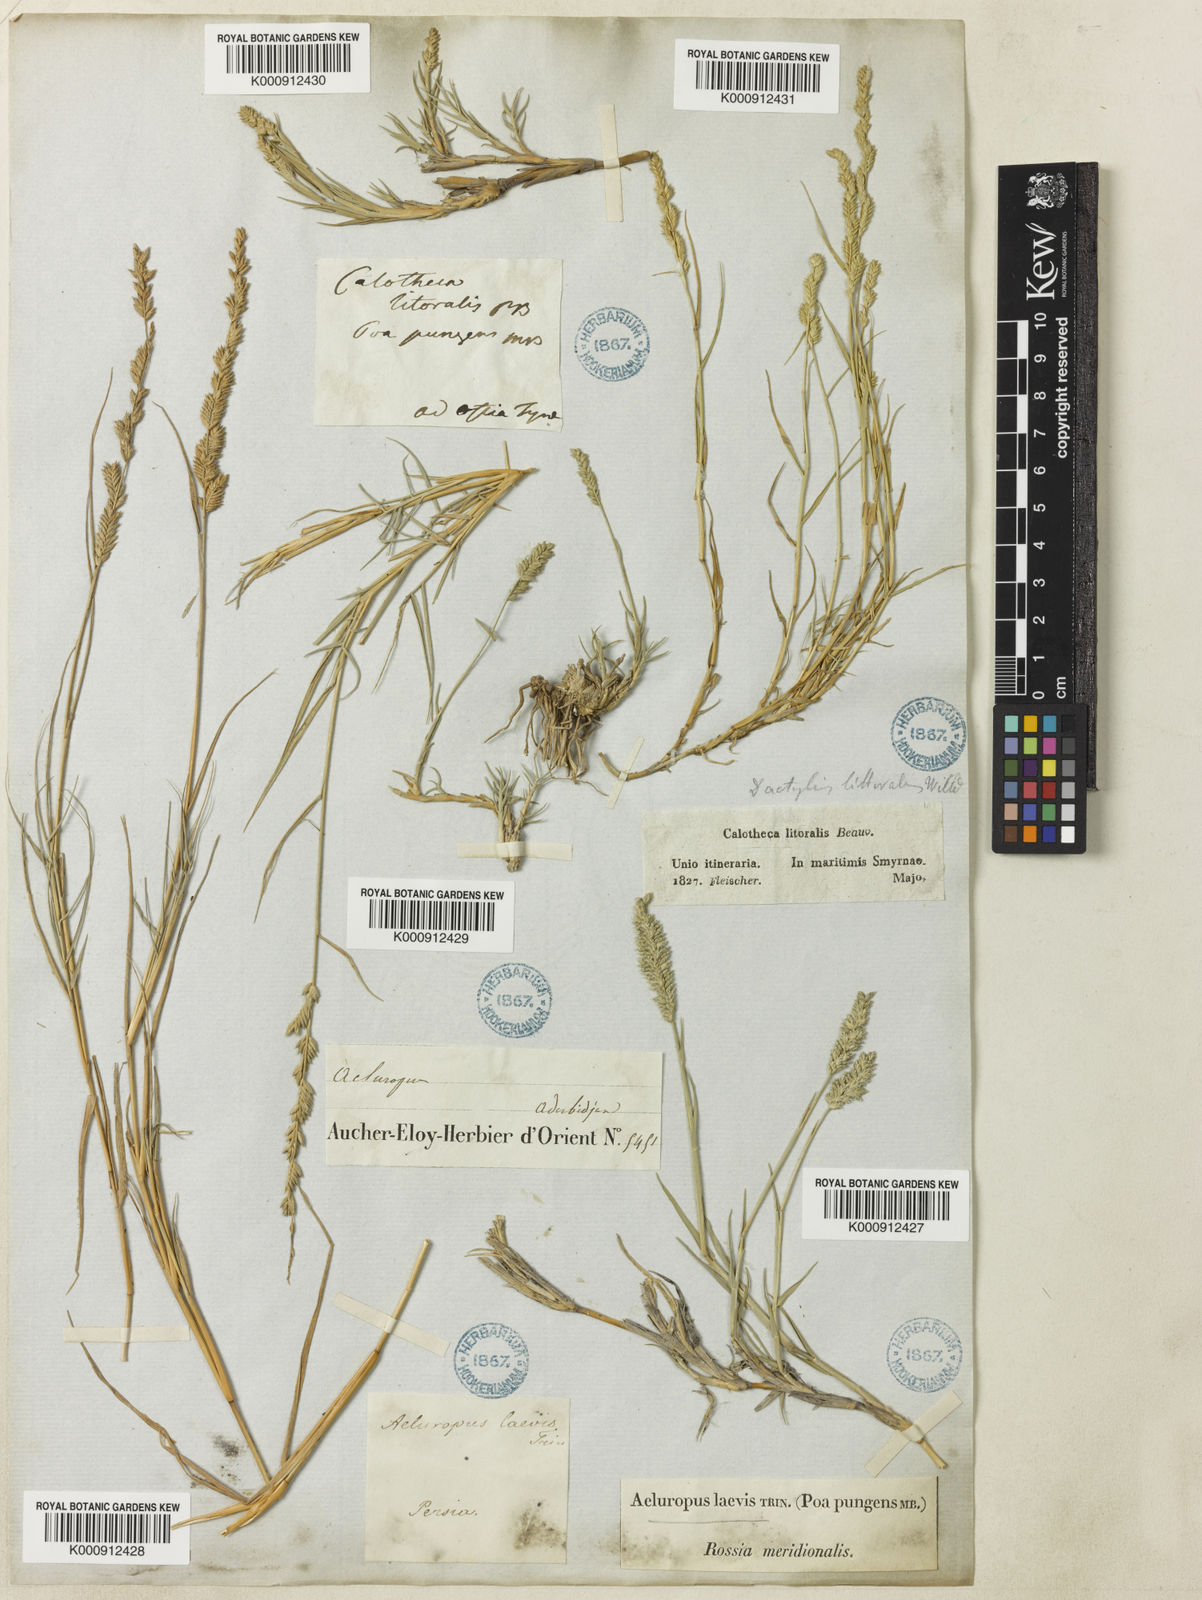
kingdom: Plantae
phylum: Tracheophyta
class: Liliopsida
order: Poales
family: Poaceae
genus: Aeluropus
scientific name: Aeluropus littoralis
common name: Indian walnut
